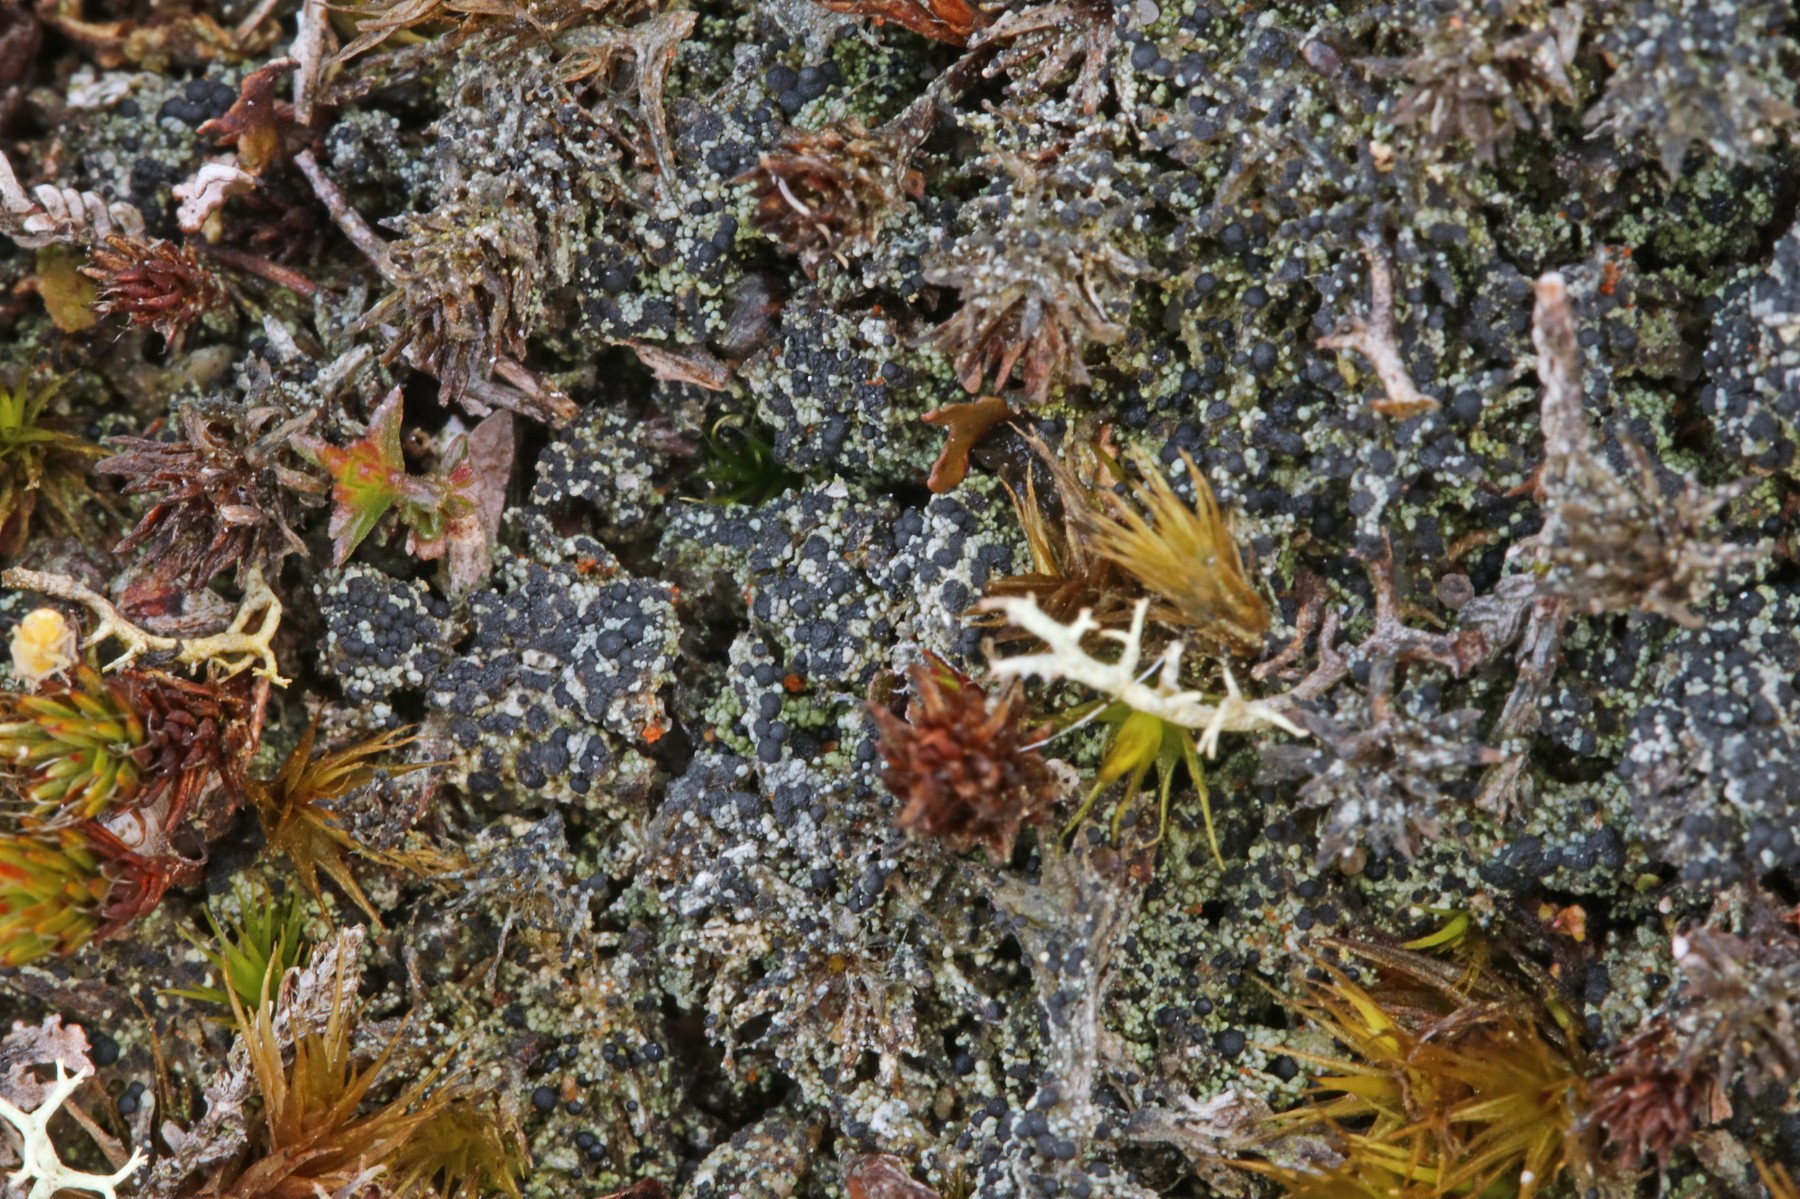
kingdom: Fungi
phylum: Ascomycota
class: Lecanoromycetes
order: Lecanorales
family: Byssolomataceae
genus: Micarea
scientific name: Micarea lignaria
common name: tørve-knaplav
